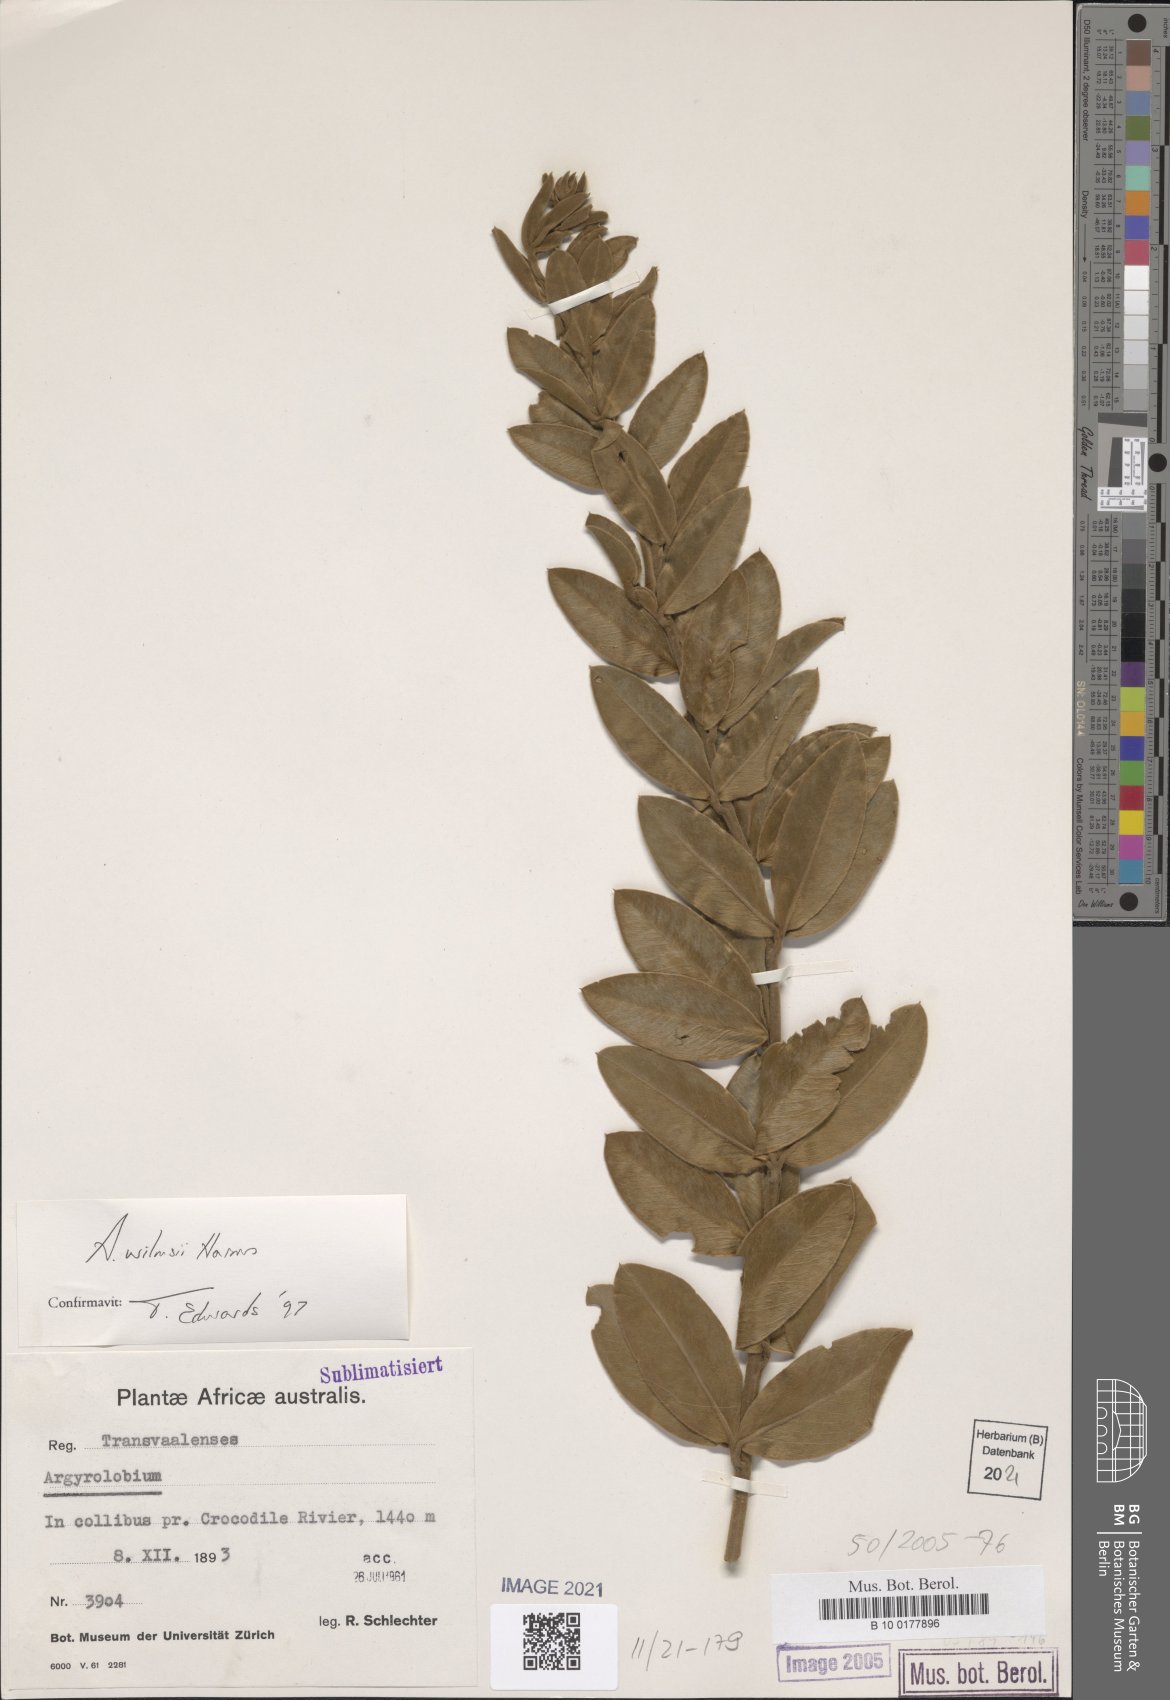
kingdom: Plantae
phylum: Tracheophyta
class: Magnoliopsida
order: Fabales
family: Fabaceae
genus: Argyrolobium
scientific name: Argyrolobium wilmsii
